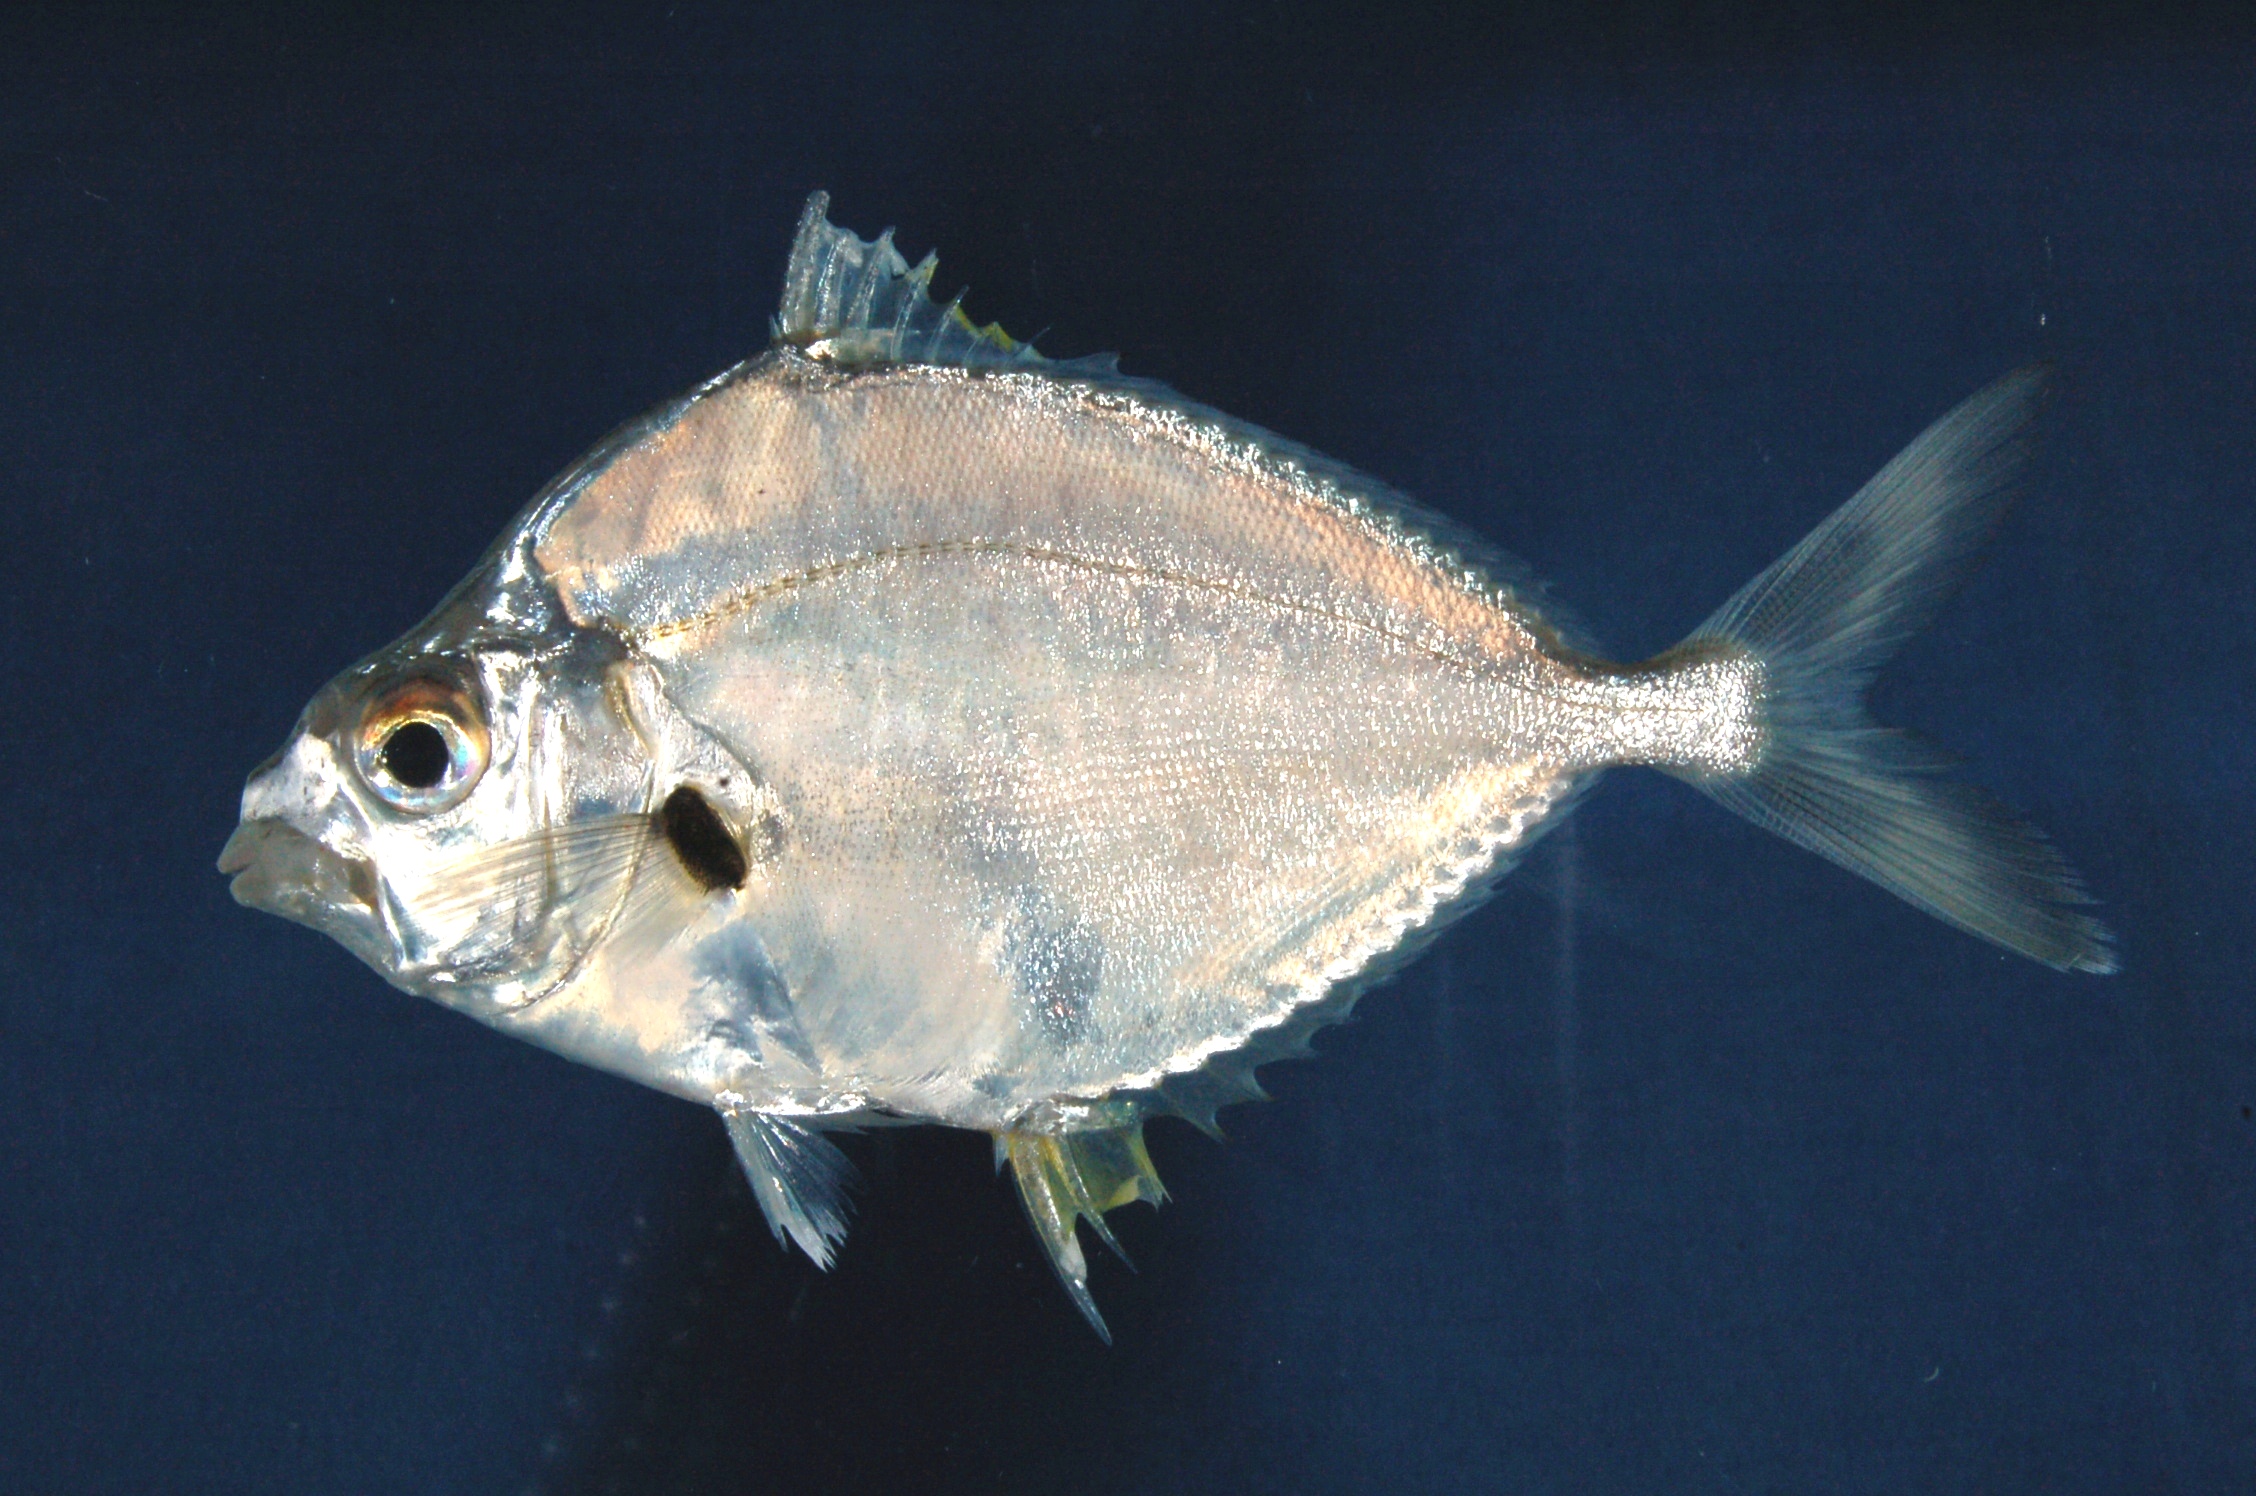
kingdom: Animalia
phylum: Chordata
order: Perciformes
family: Leiognathidae
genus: Leiognathus
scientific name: Leiognathus robustus
